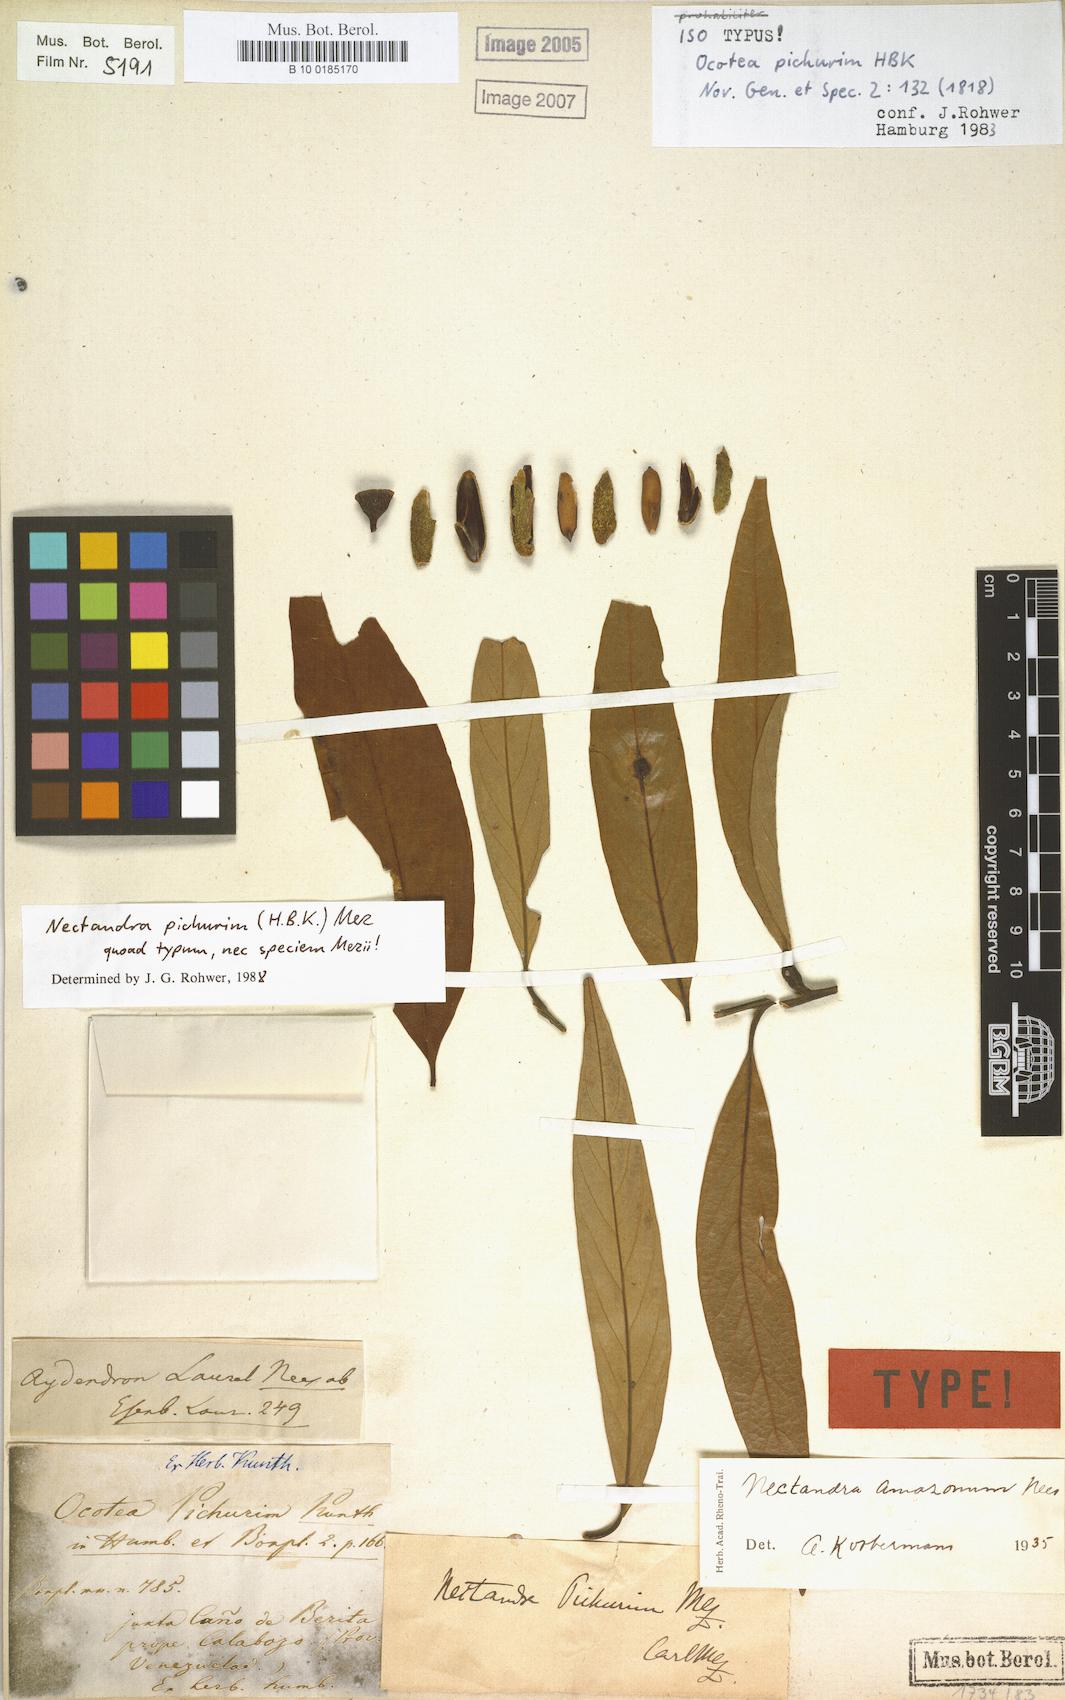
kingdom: Plantae
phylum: Tracheophyta
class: Magnoliopsida
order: Laurales
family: Lauraceae
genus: Nectandra
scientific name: Nectandra pichurim
